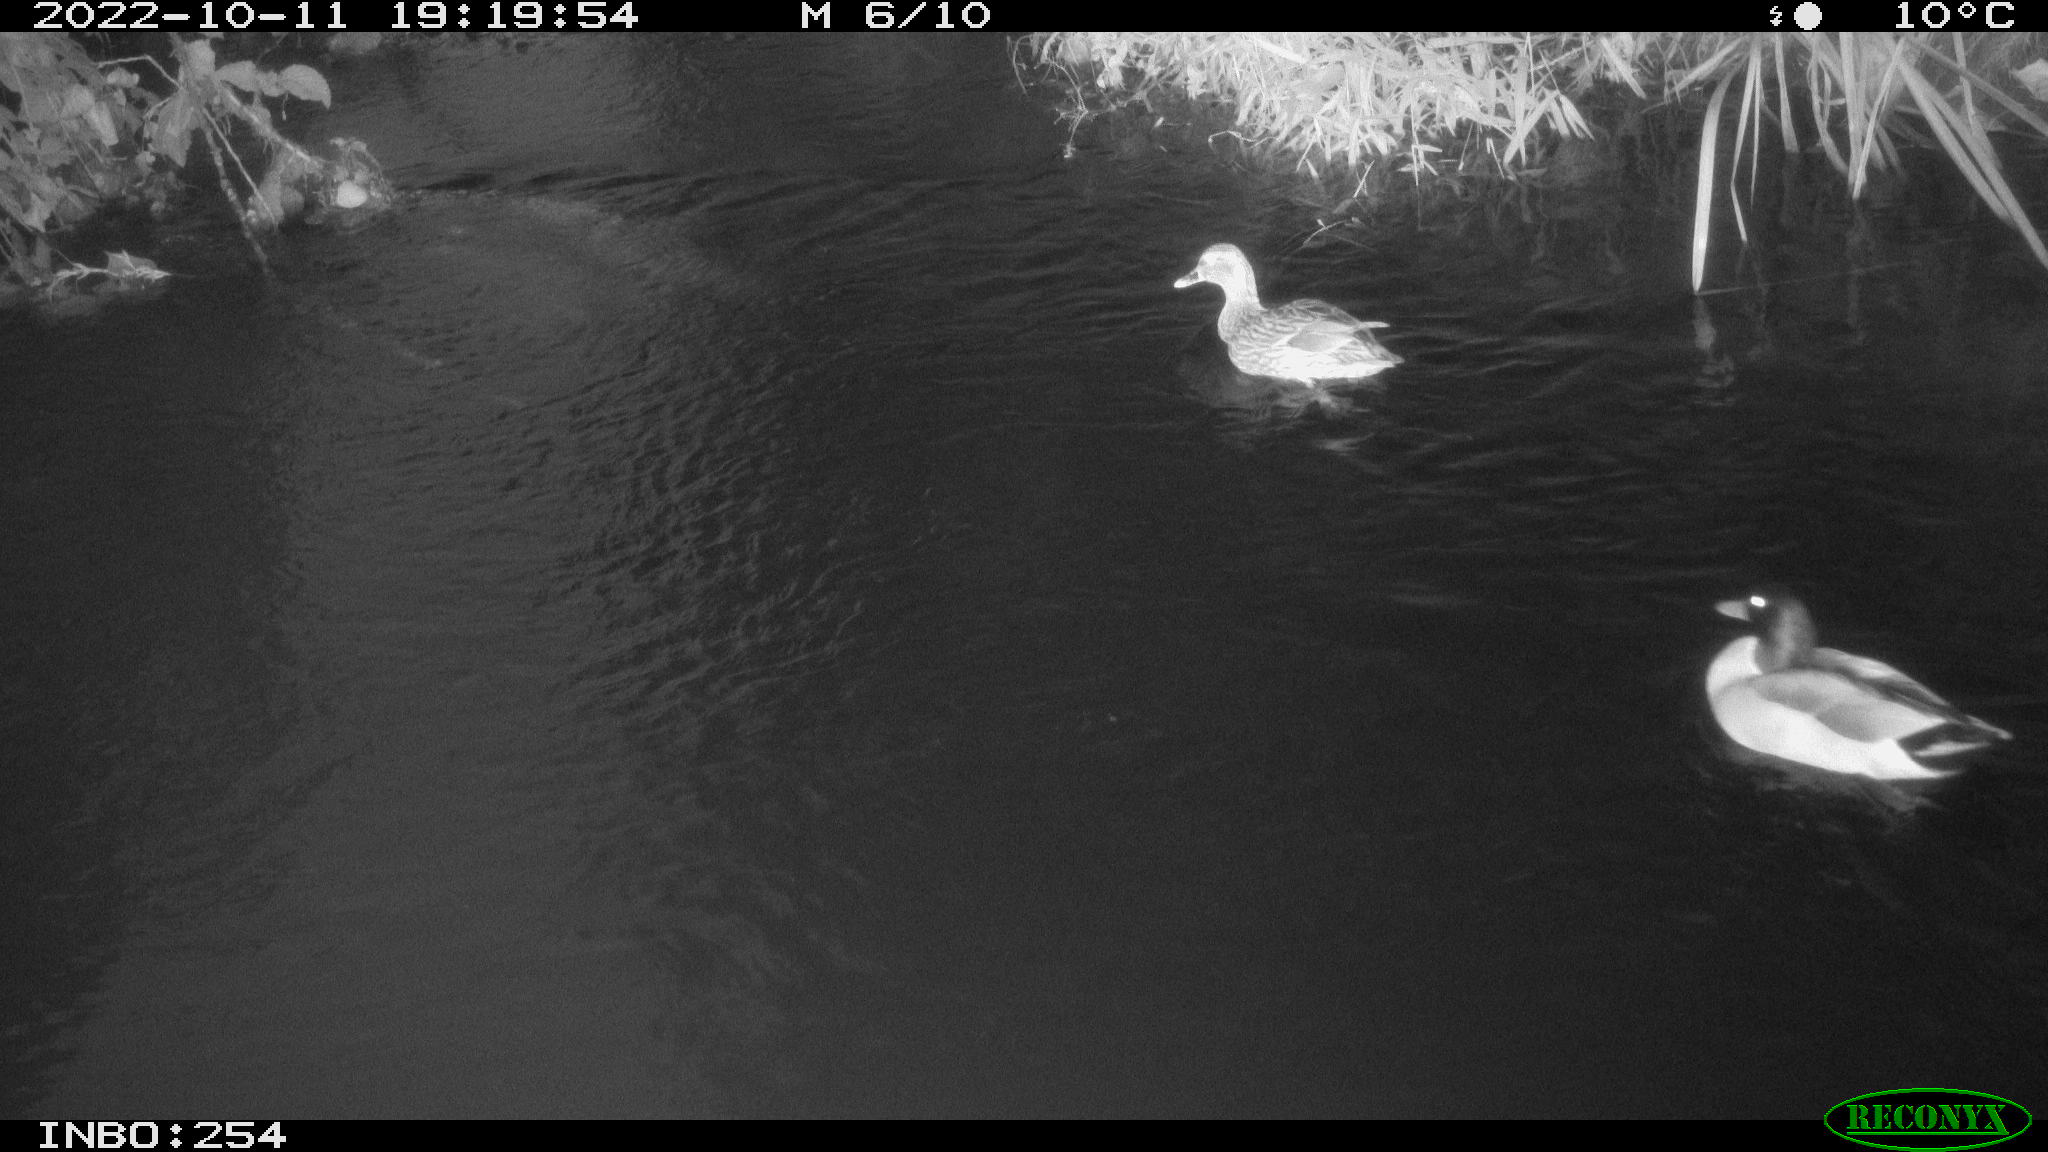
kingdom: Animalia
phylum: Chordata
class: Aves
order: Anseriformes
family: Anatidae
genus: Anas
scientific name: Anas
